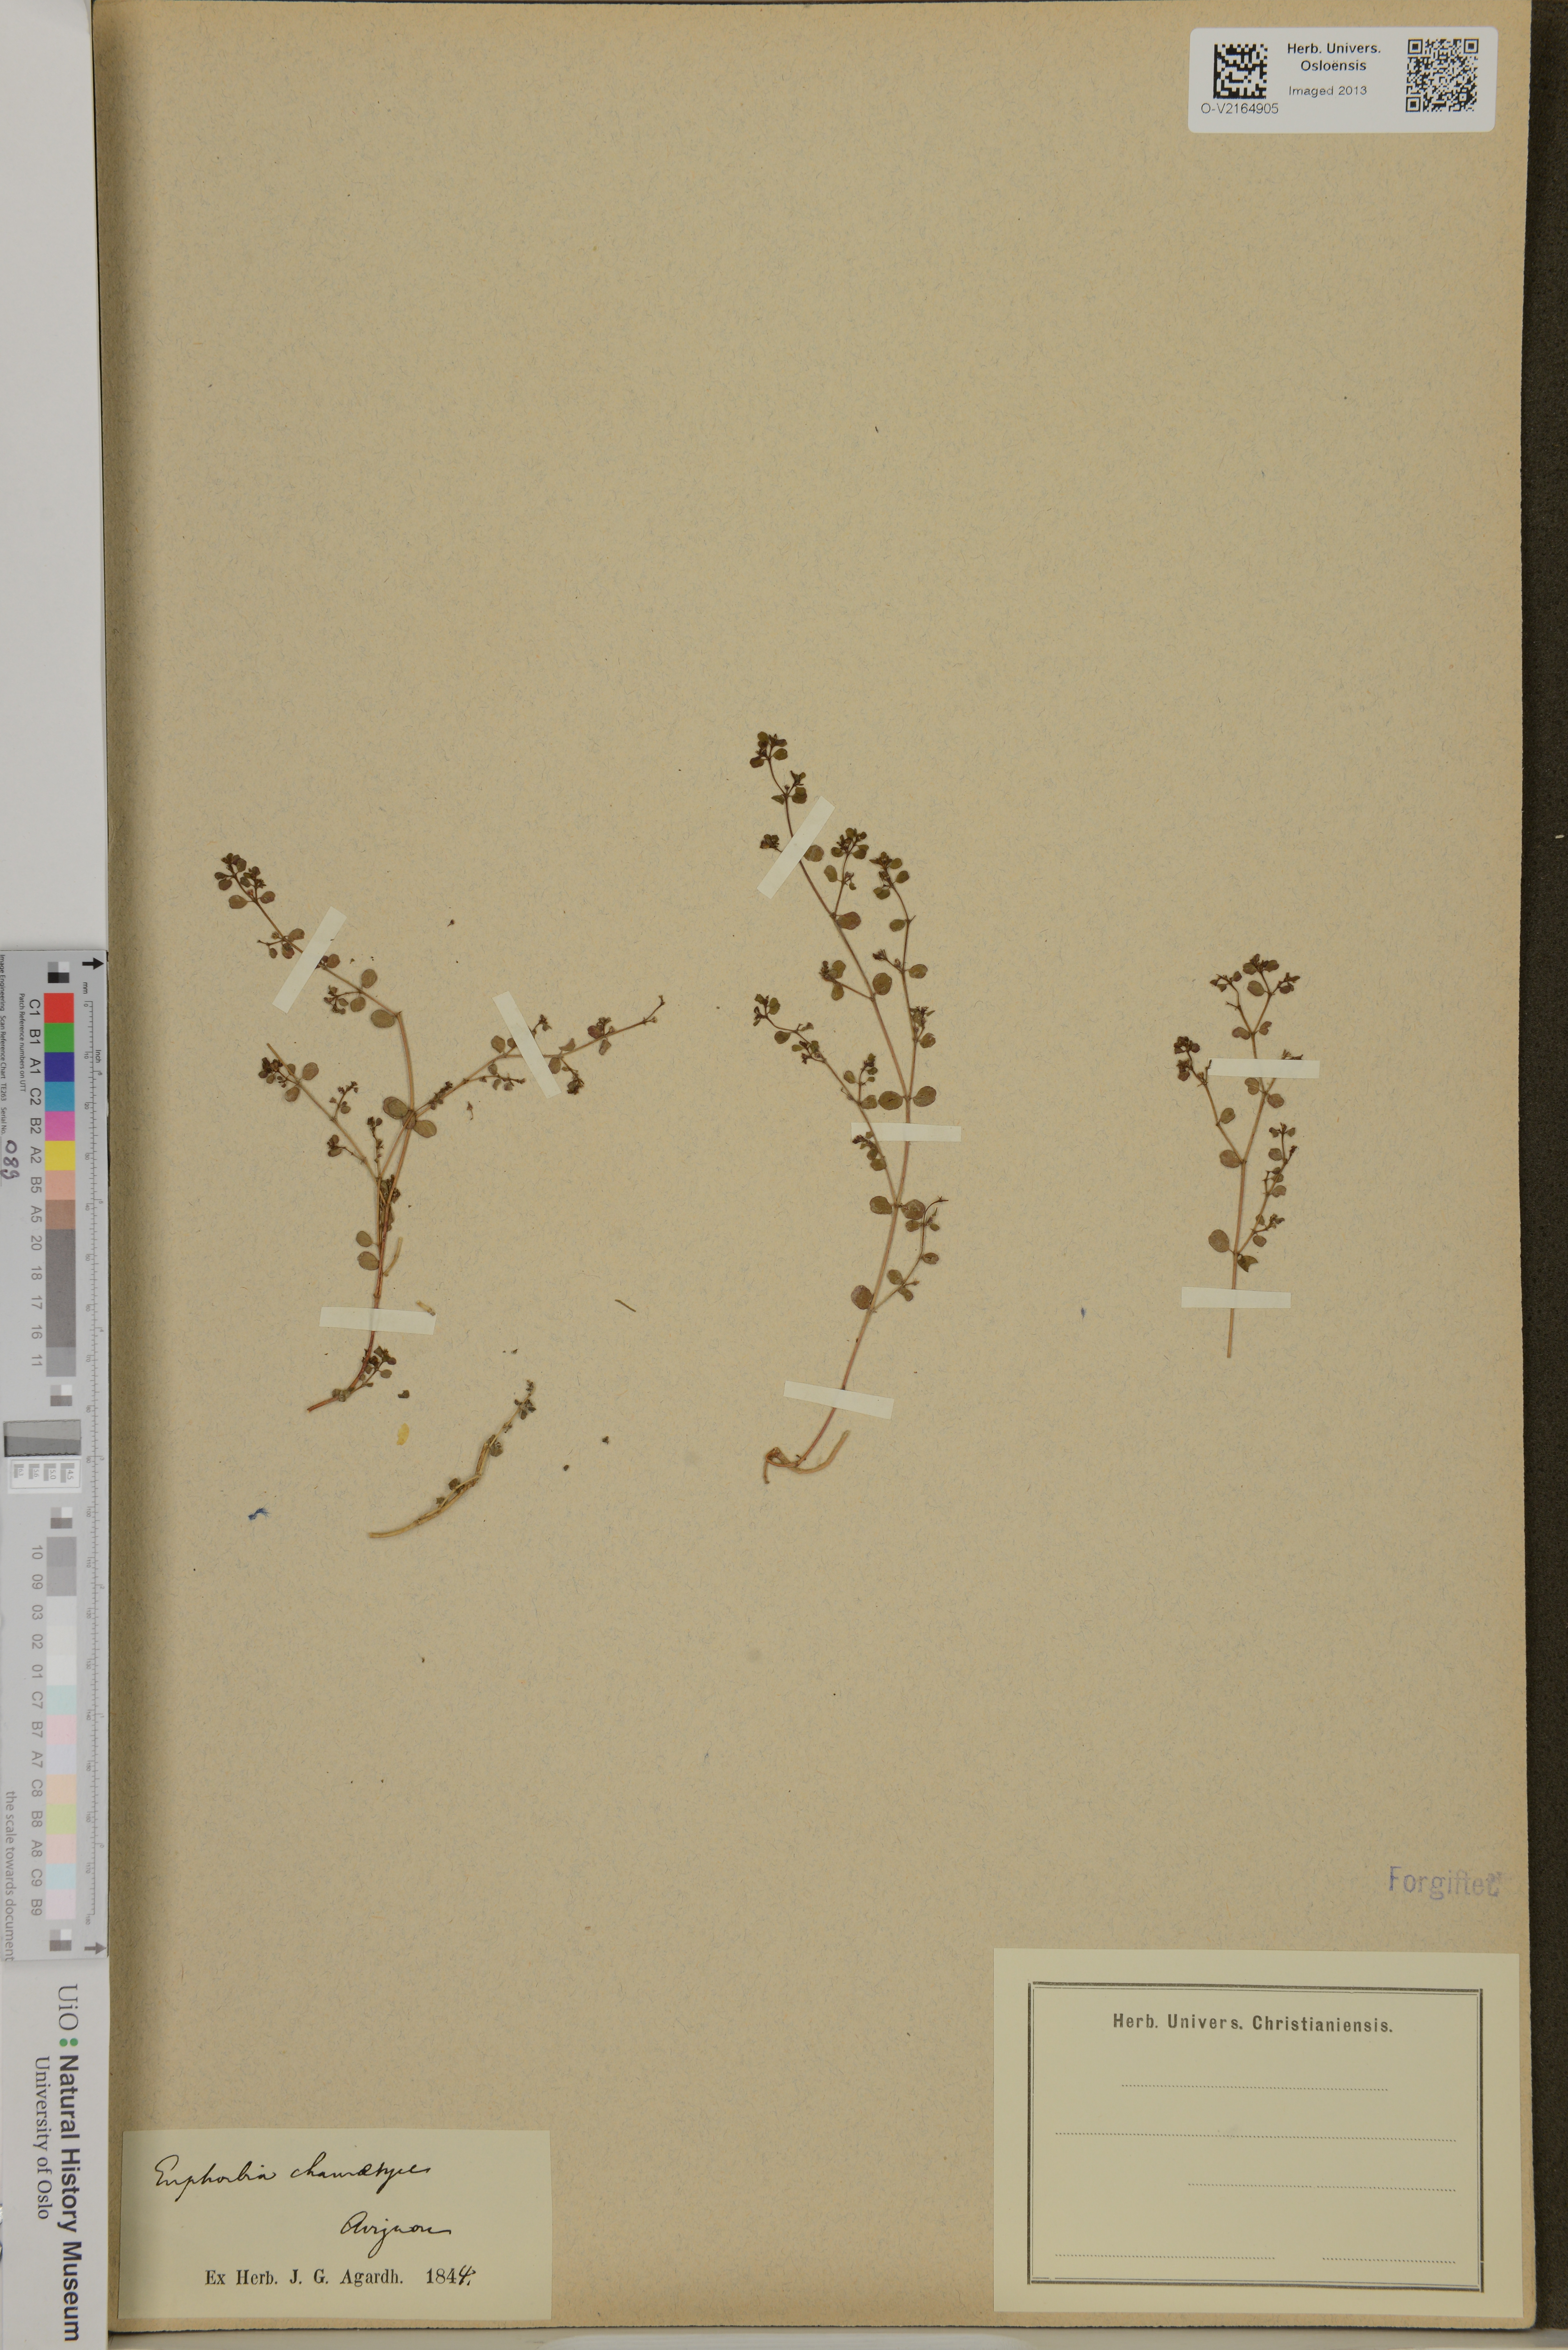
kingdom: Plantae
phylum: Tracheophyta
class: Magnoliopsida
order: Malpighiales
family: Euphorbiaceae
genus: Euphorbia
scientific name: Euphorbia chamaesyce
